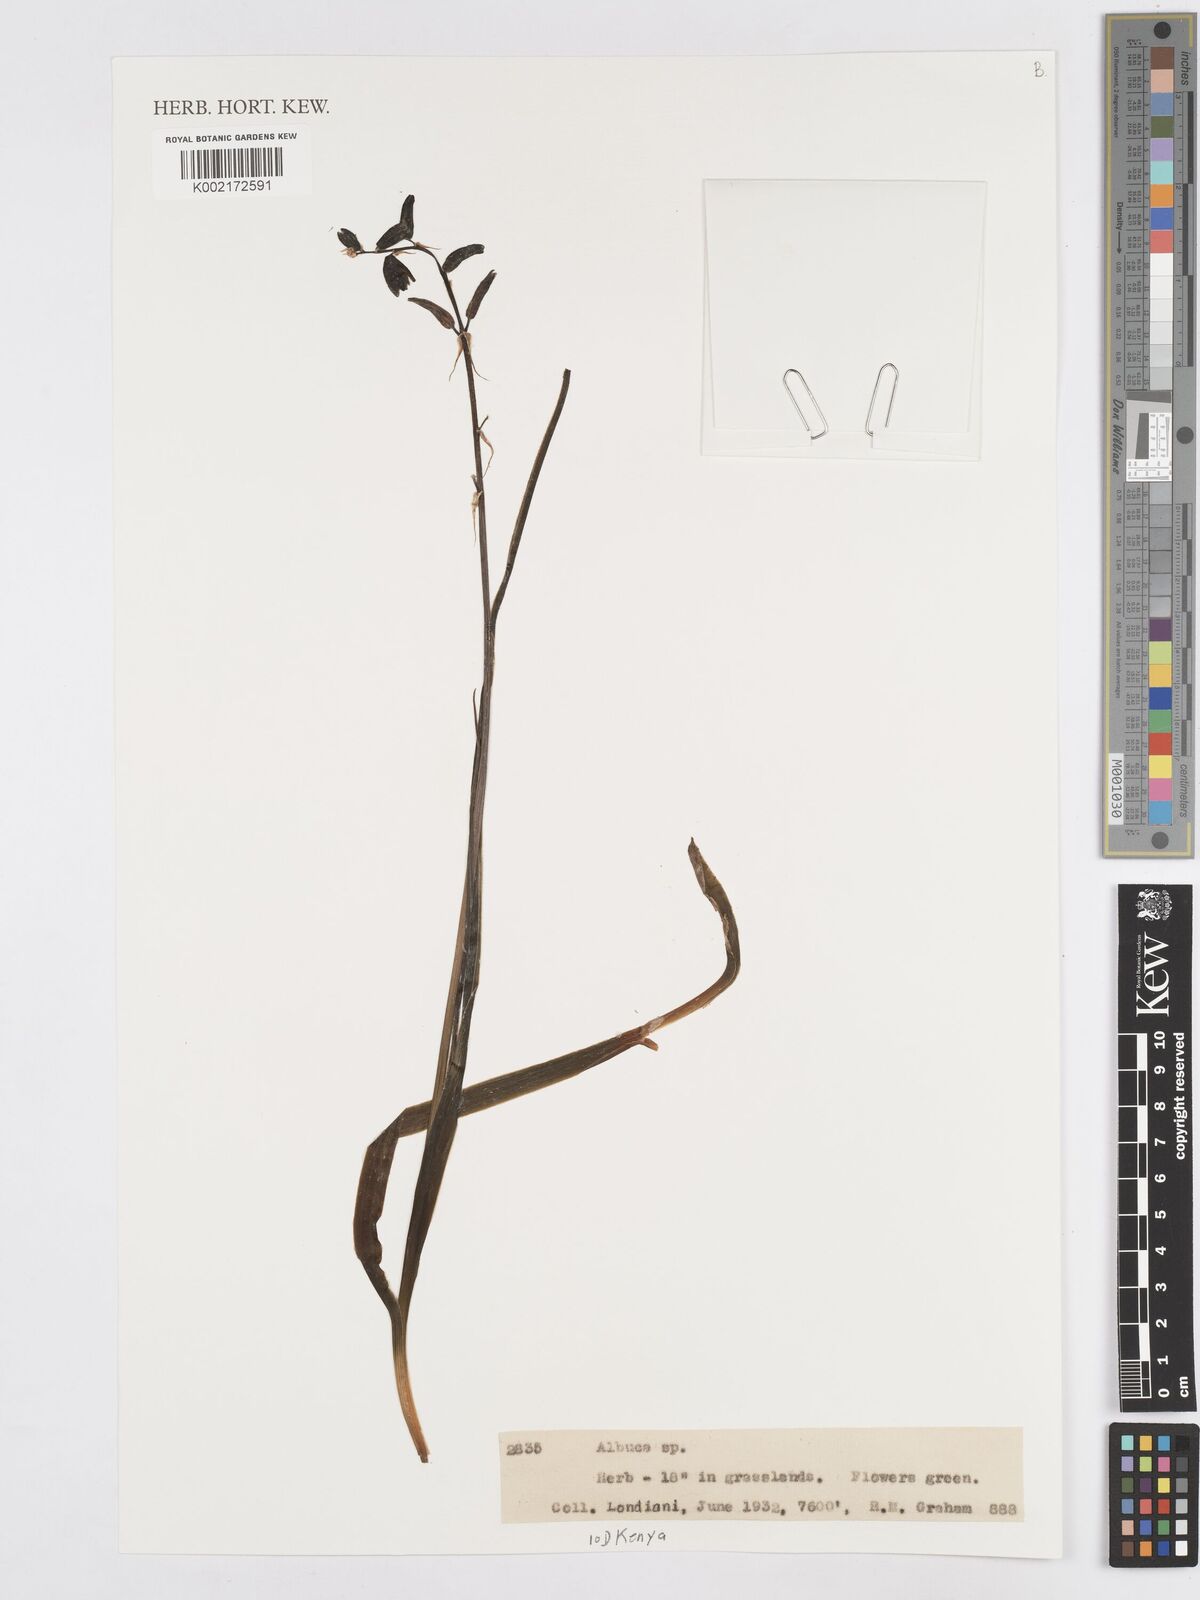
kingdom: Plantae
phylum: Tracheophyta
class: Liliopsida
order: Asparagales
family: Asparagaceae
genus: Albuca
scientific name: Albuca
